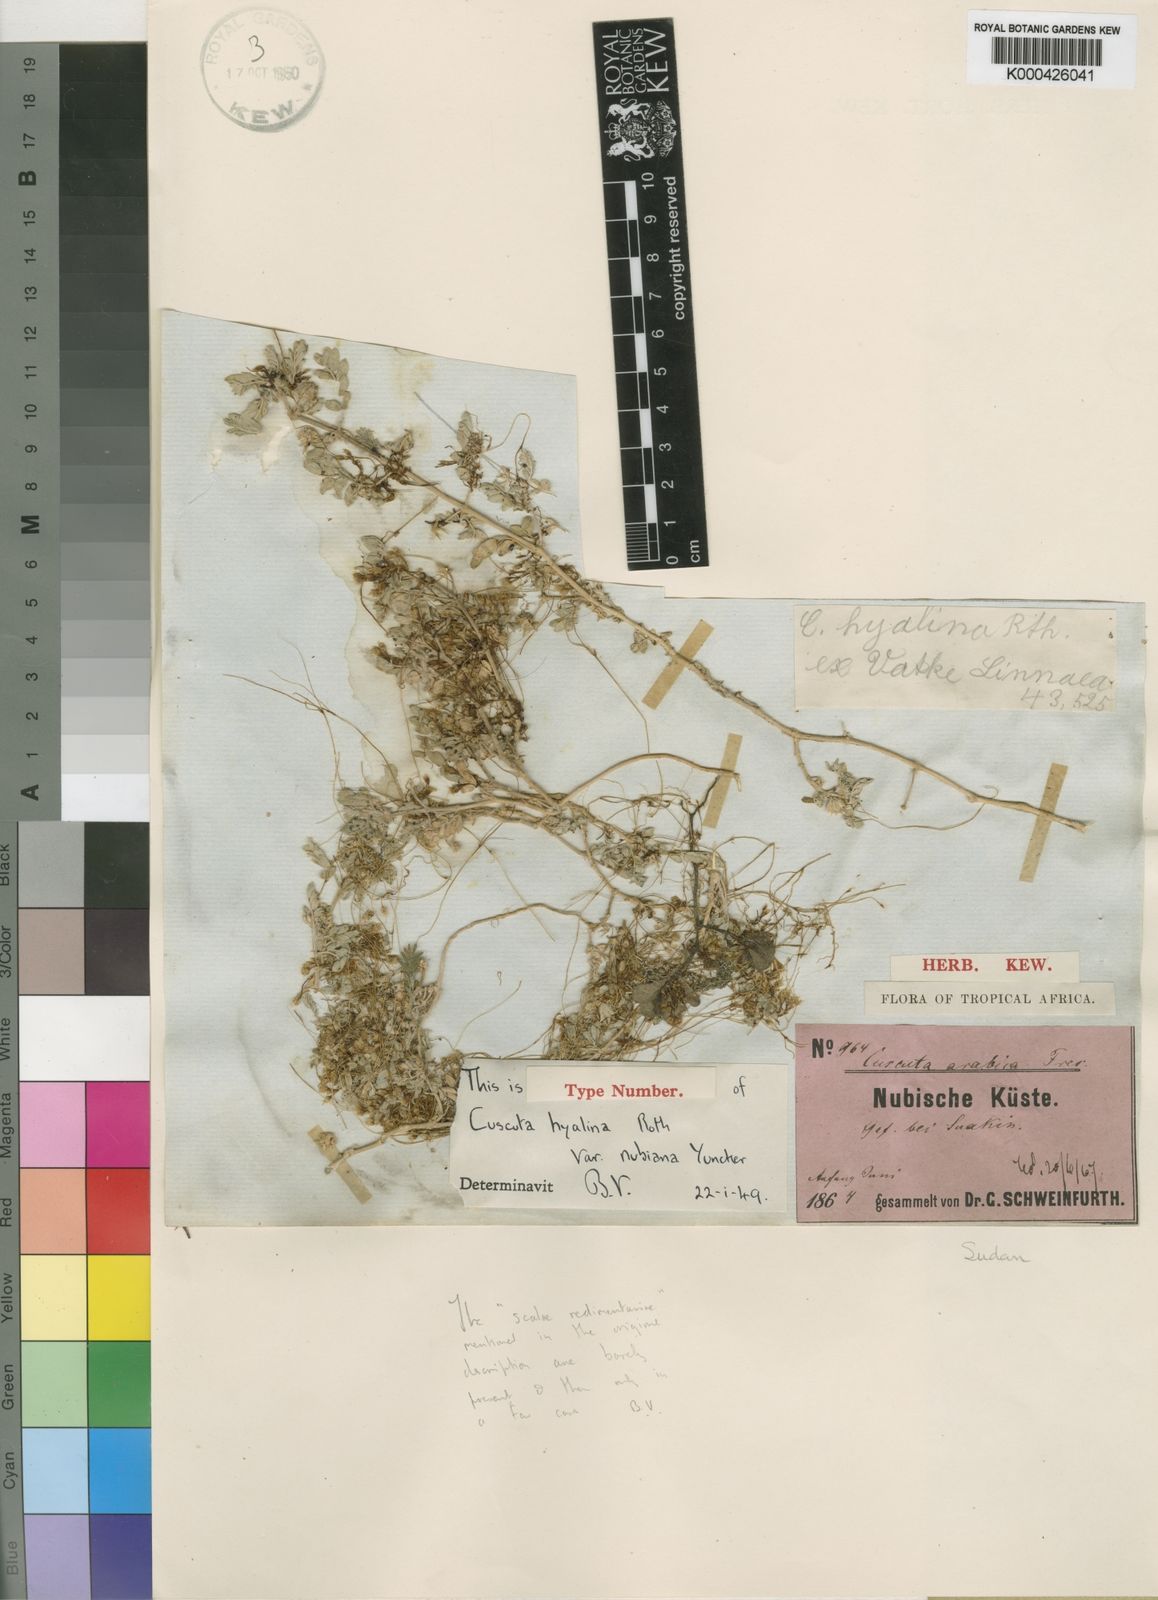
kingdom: Plantae
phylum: Tracheophyta
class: Magnoliopsida
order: Solanales
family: Convolvulaceae
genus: Cuscuta
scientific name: Cuscuta
